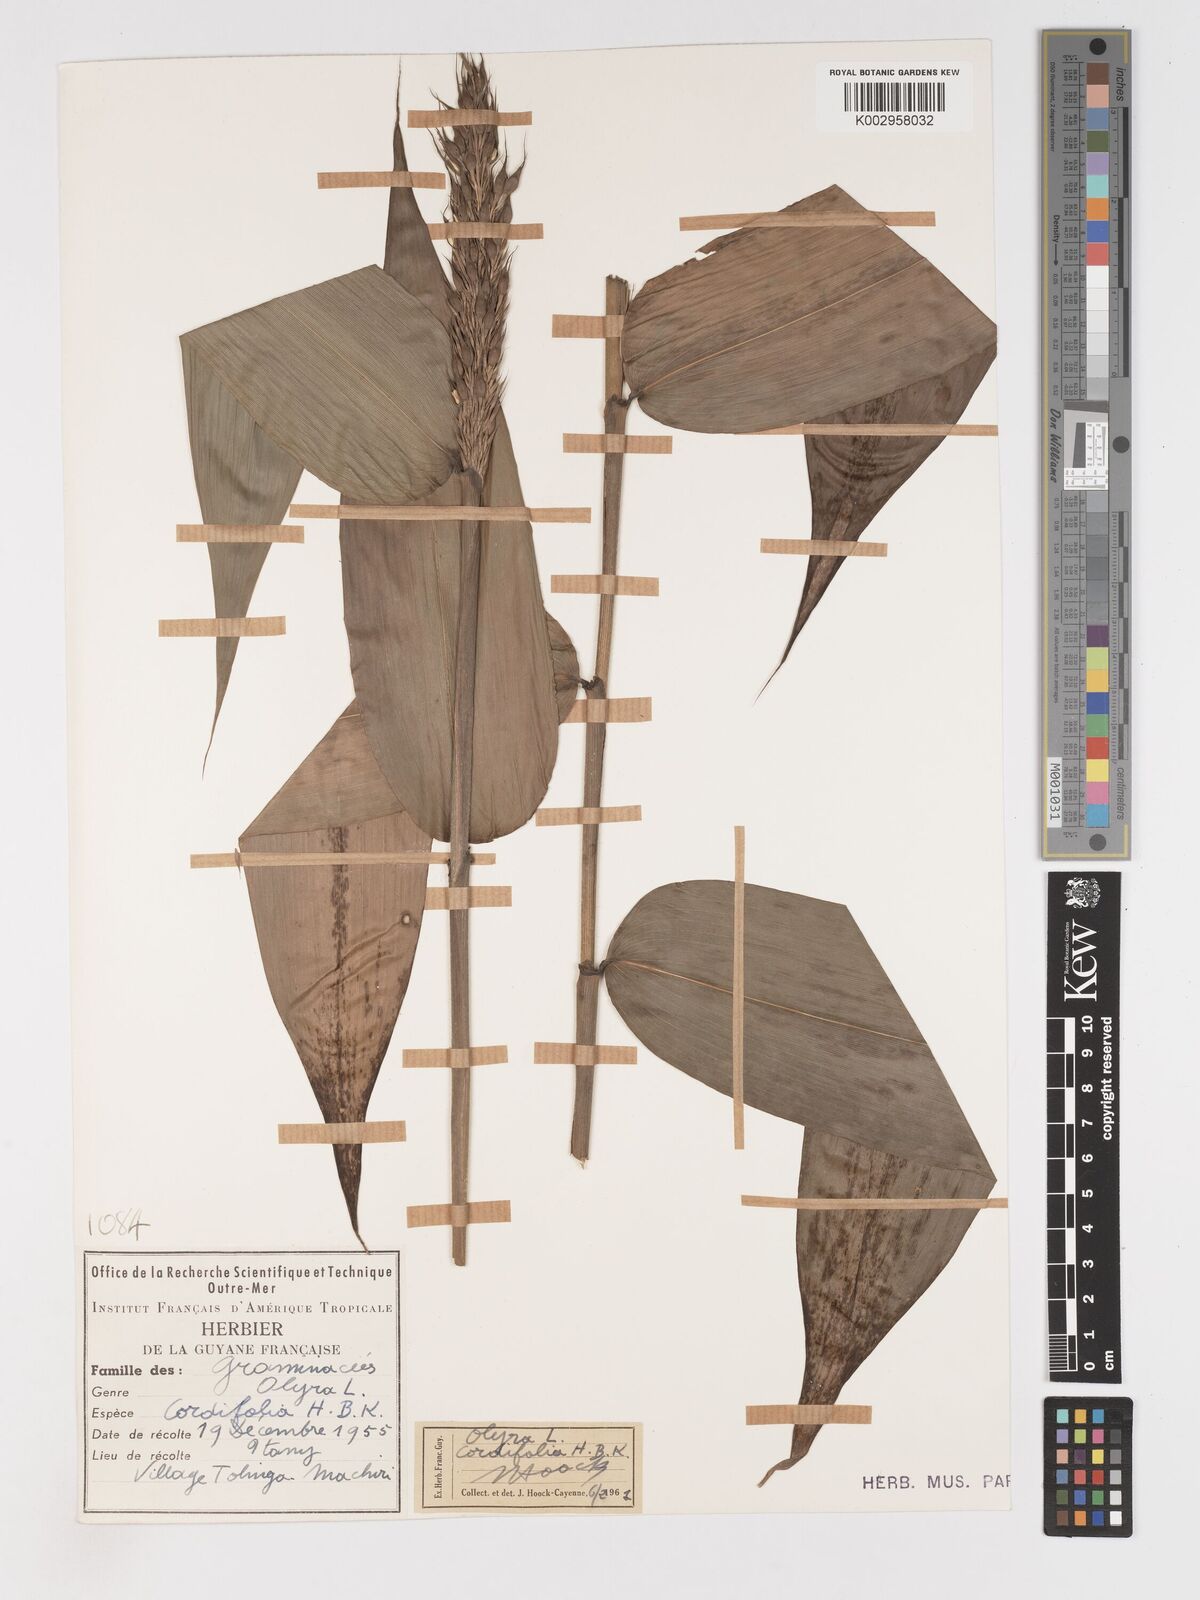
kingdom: Plantae
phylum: Tracheophyta
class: Liliopsida
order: Poales
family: Poaceae
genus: Olyra
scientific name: Olyra latifolia
